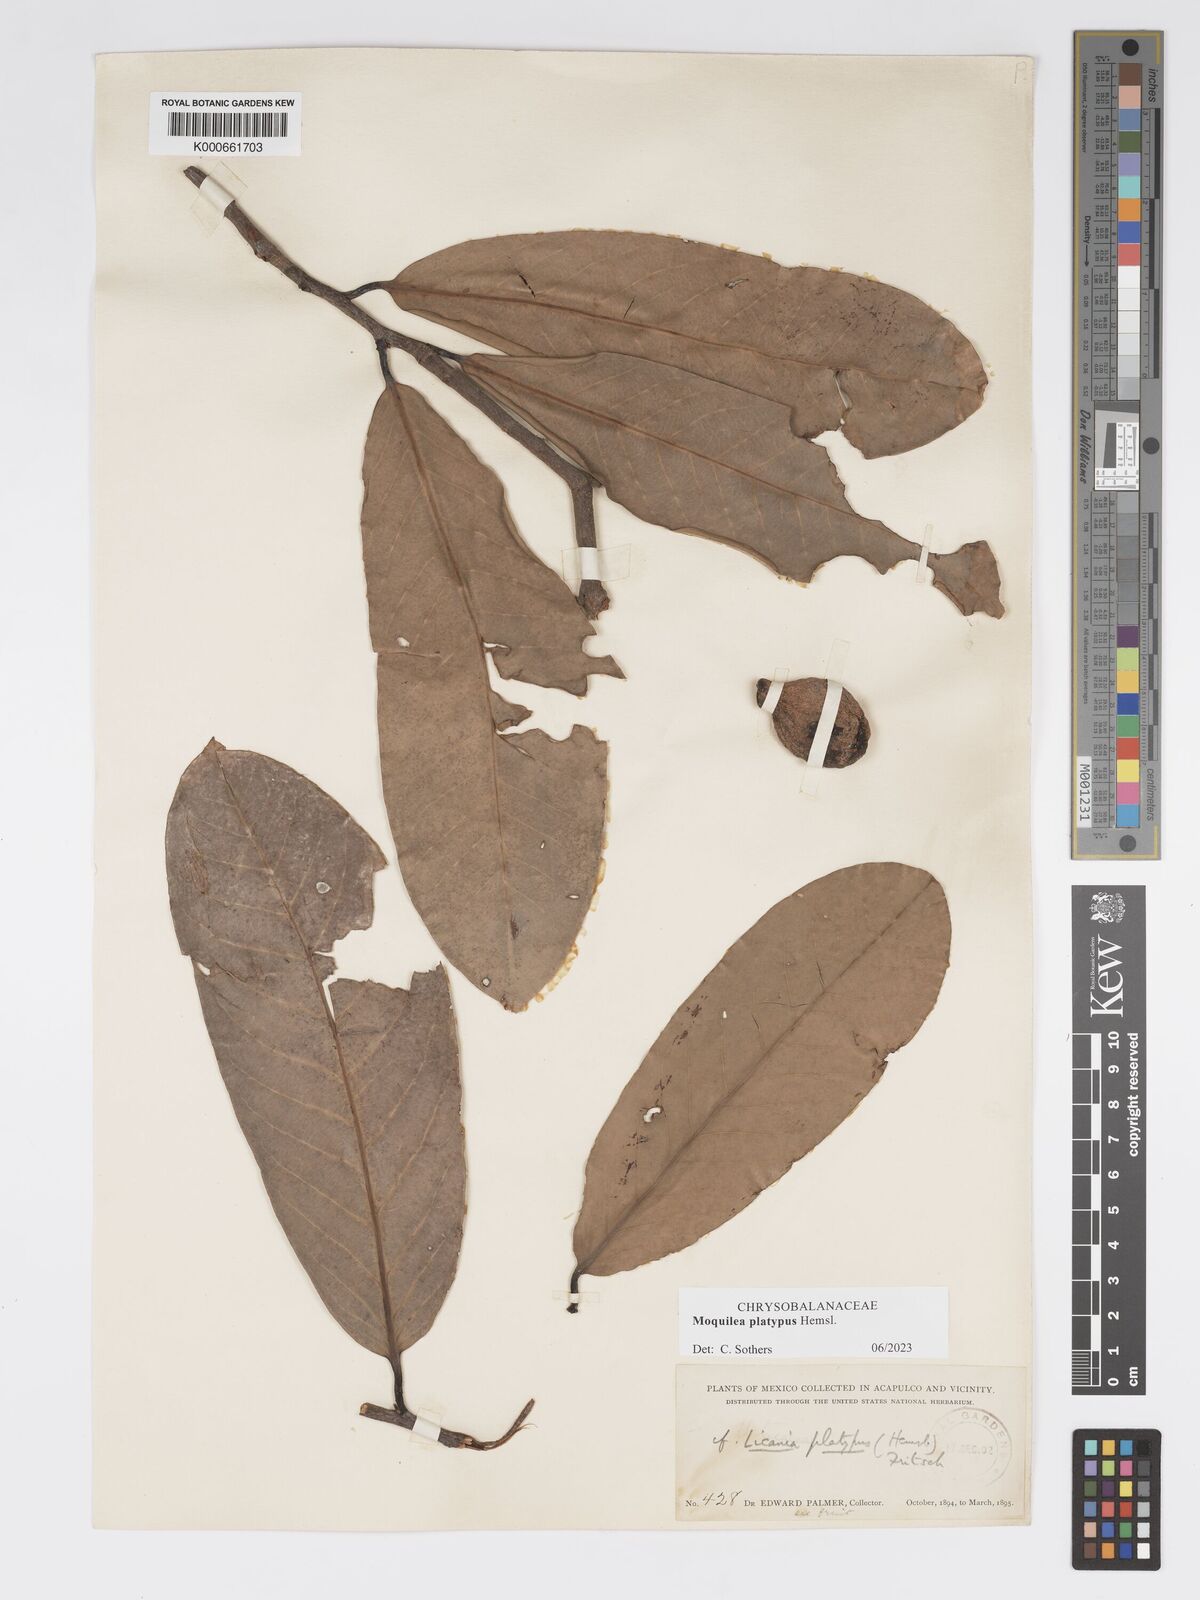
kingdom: Plantae
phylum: Tracheophyta
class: Magnoliopsida
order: Malpighiales
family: Chrysobalanaceae
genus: Moquilea
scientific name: Moquilea platypus
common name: Sansapote
